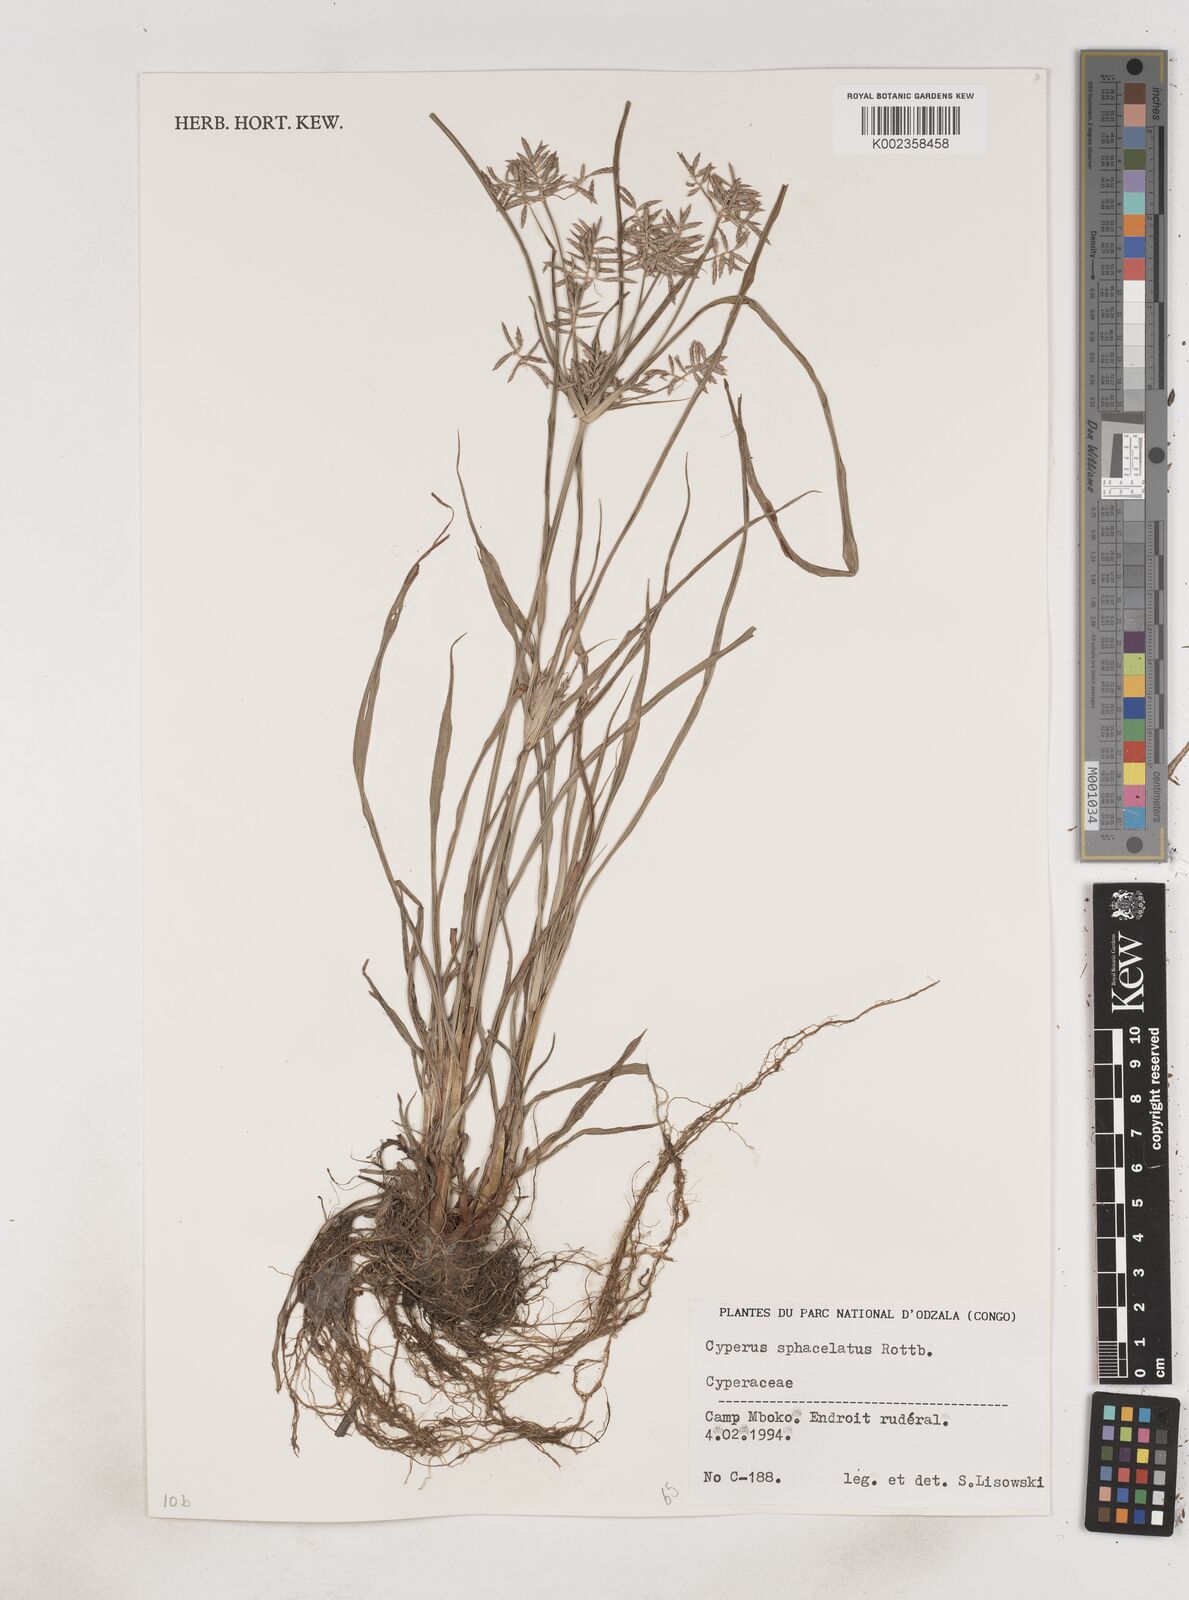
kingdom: Plantae
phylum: Tracheophyta
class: Liliopsida
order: Poales
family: Cyperaceae
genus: Cyperus
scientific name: Cyperus sphacelatus
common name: Roadside flatsedge
